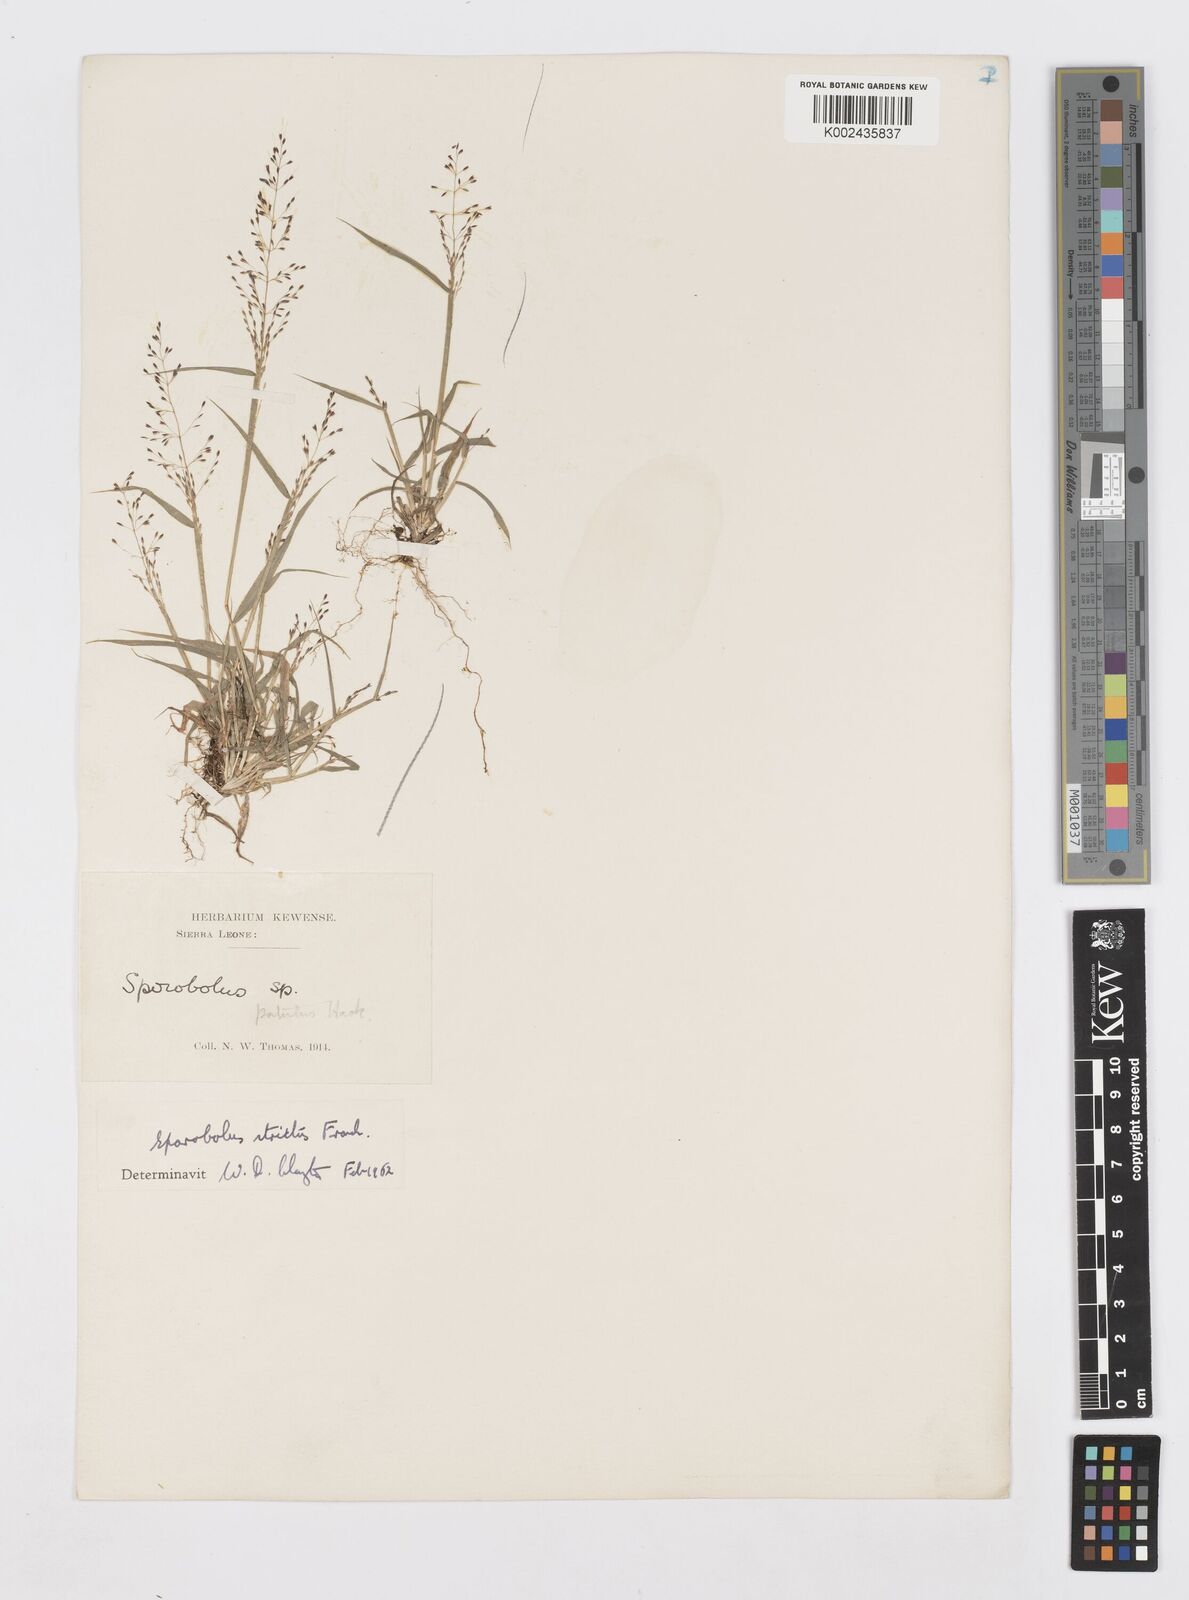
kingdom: Plantae
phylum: Tracheophyta
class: Liliopsida
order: Poales
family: Poaceae
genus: Sporobolus
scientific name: Sporobolus paniculatus
